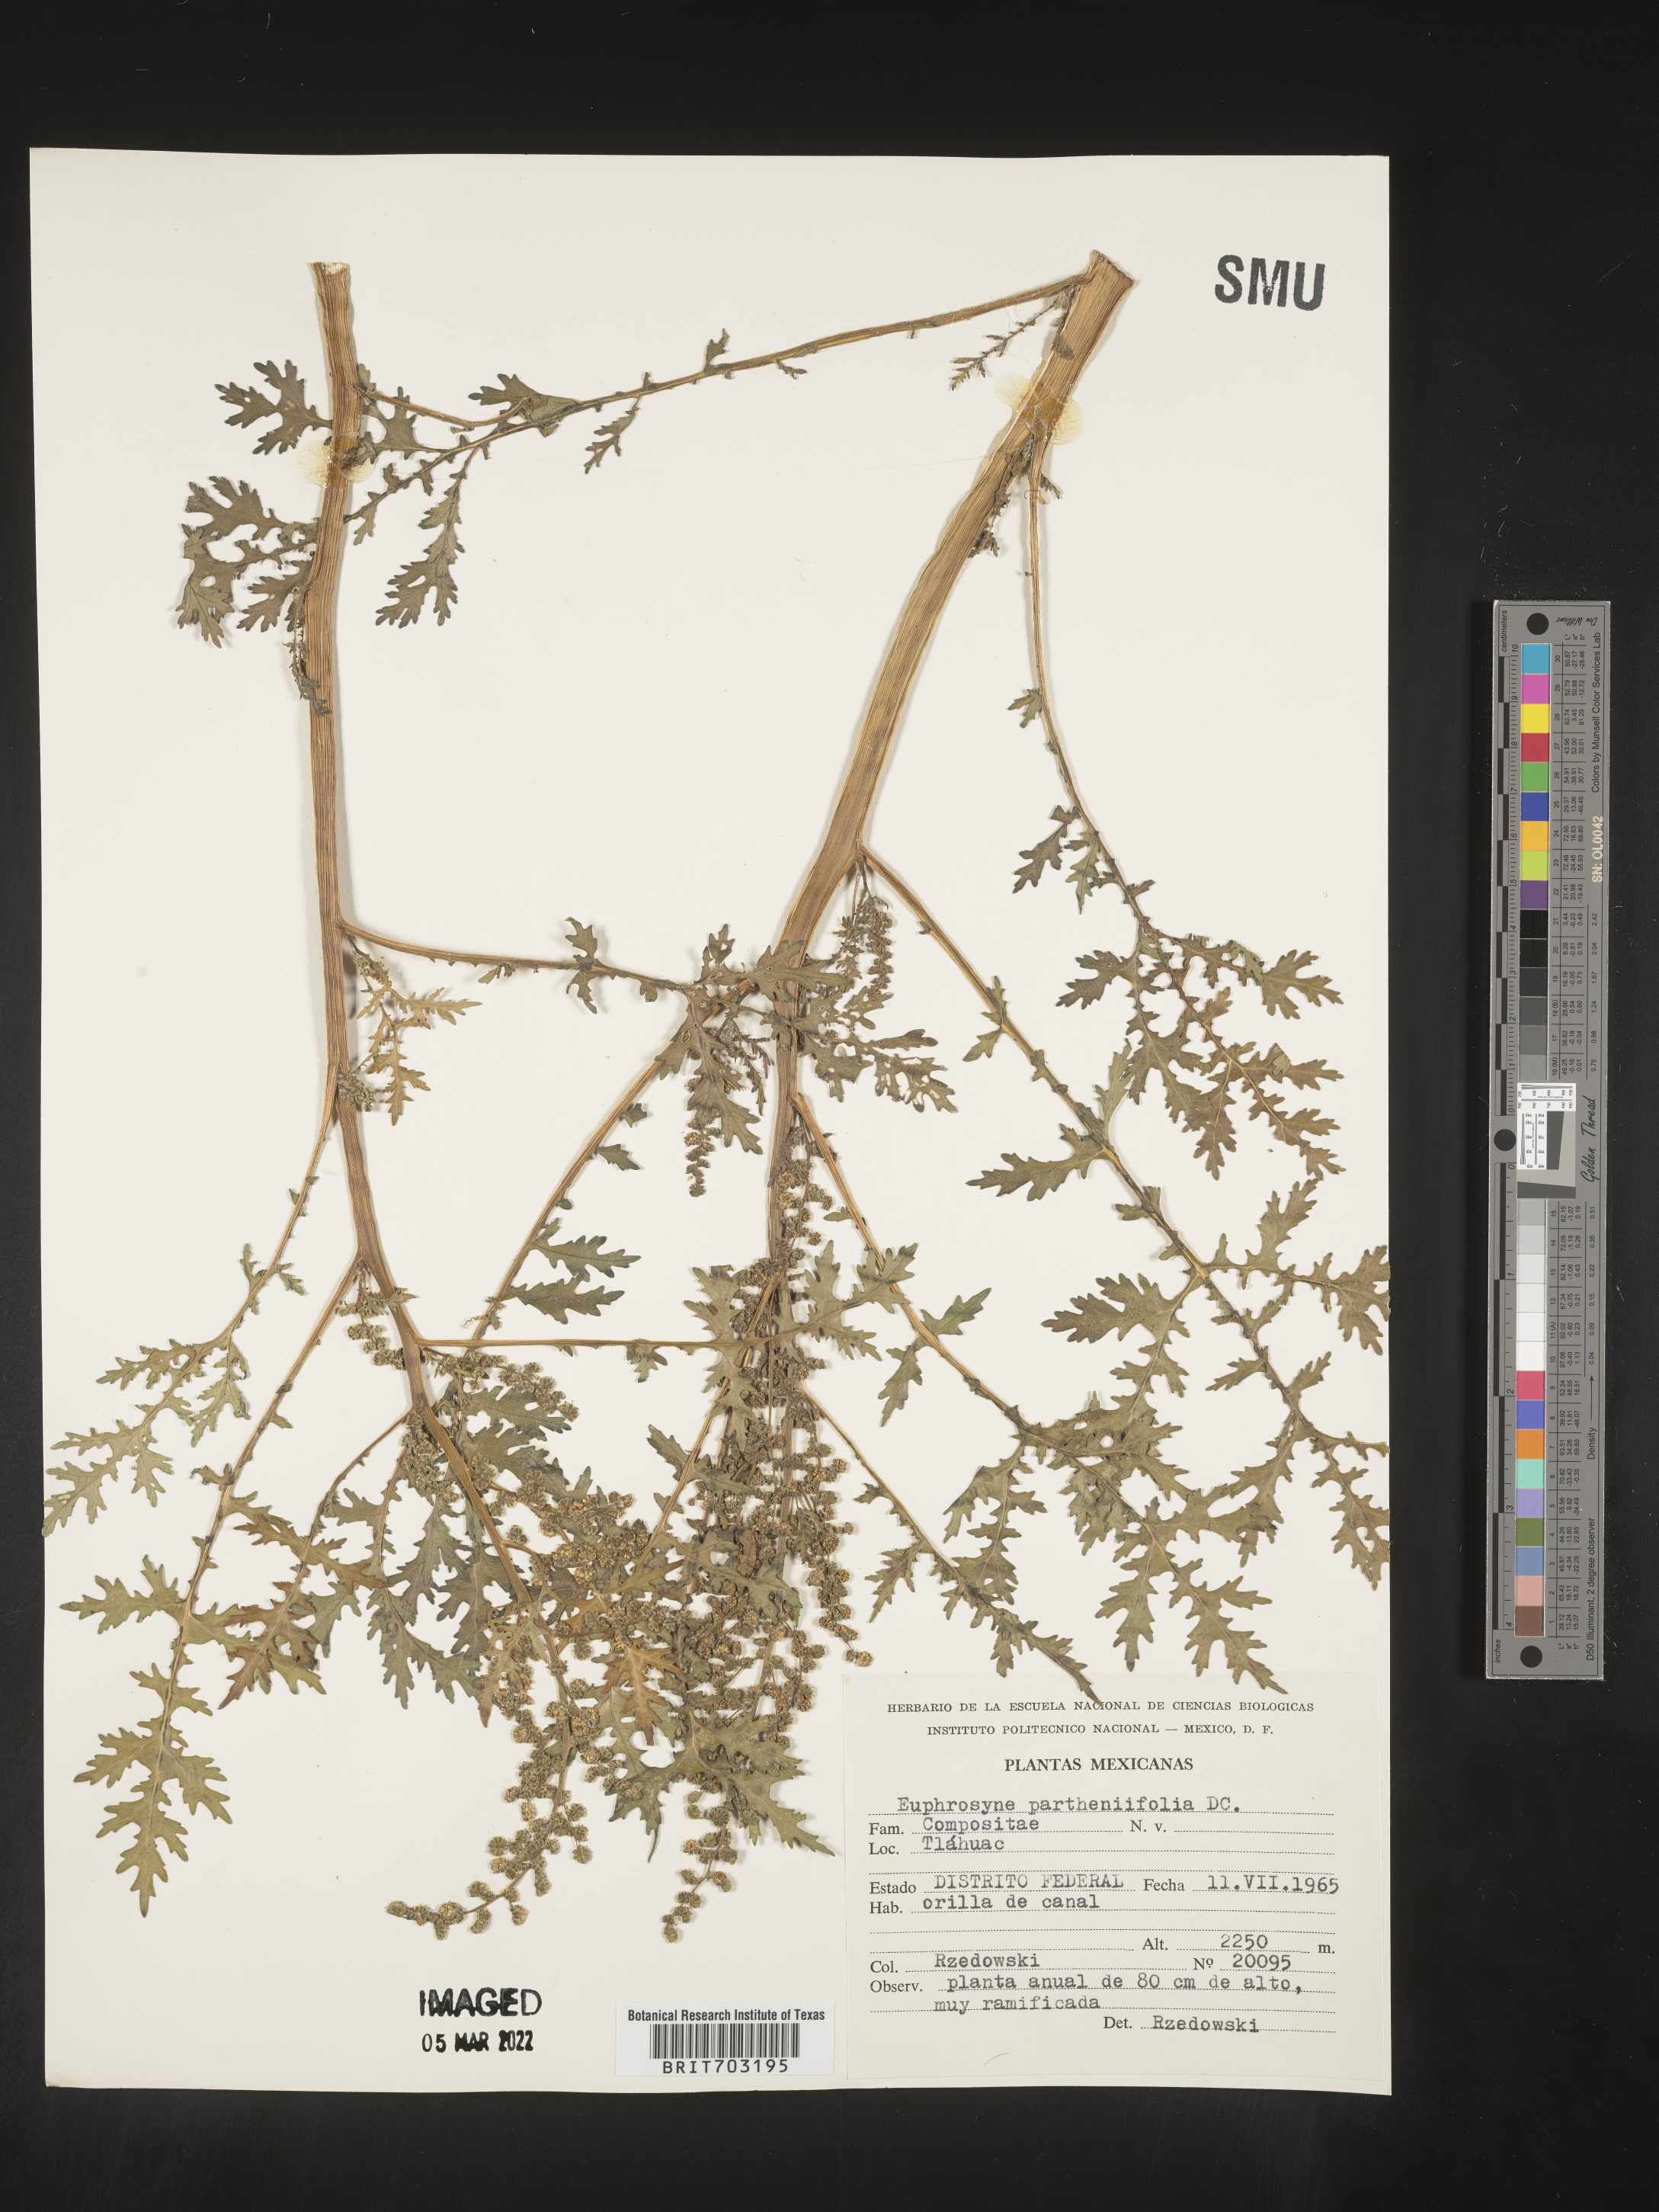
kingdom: Plantae
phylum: Tracheophyta
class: Magnoliopsida
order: Asterales
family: Asteraceae
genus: Euphrosyne
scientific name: Euphrosyne
